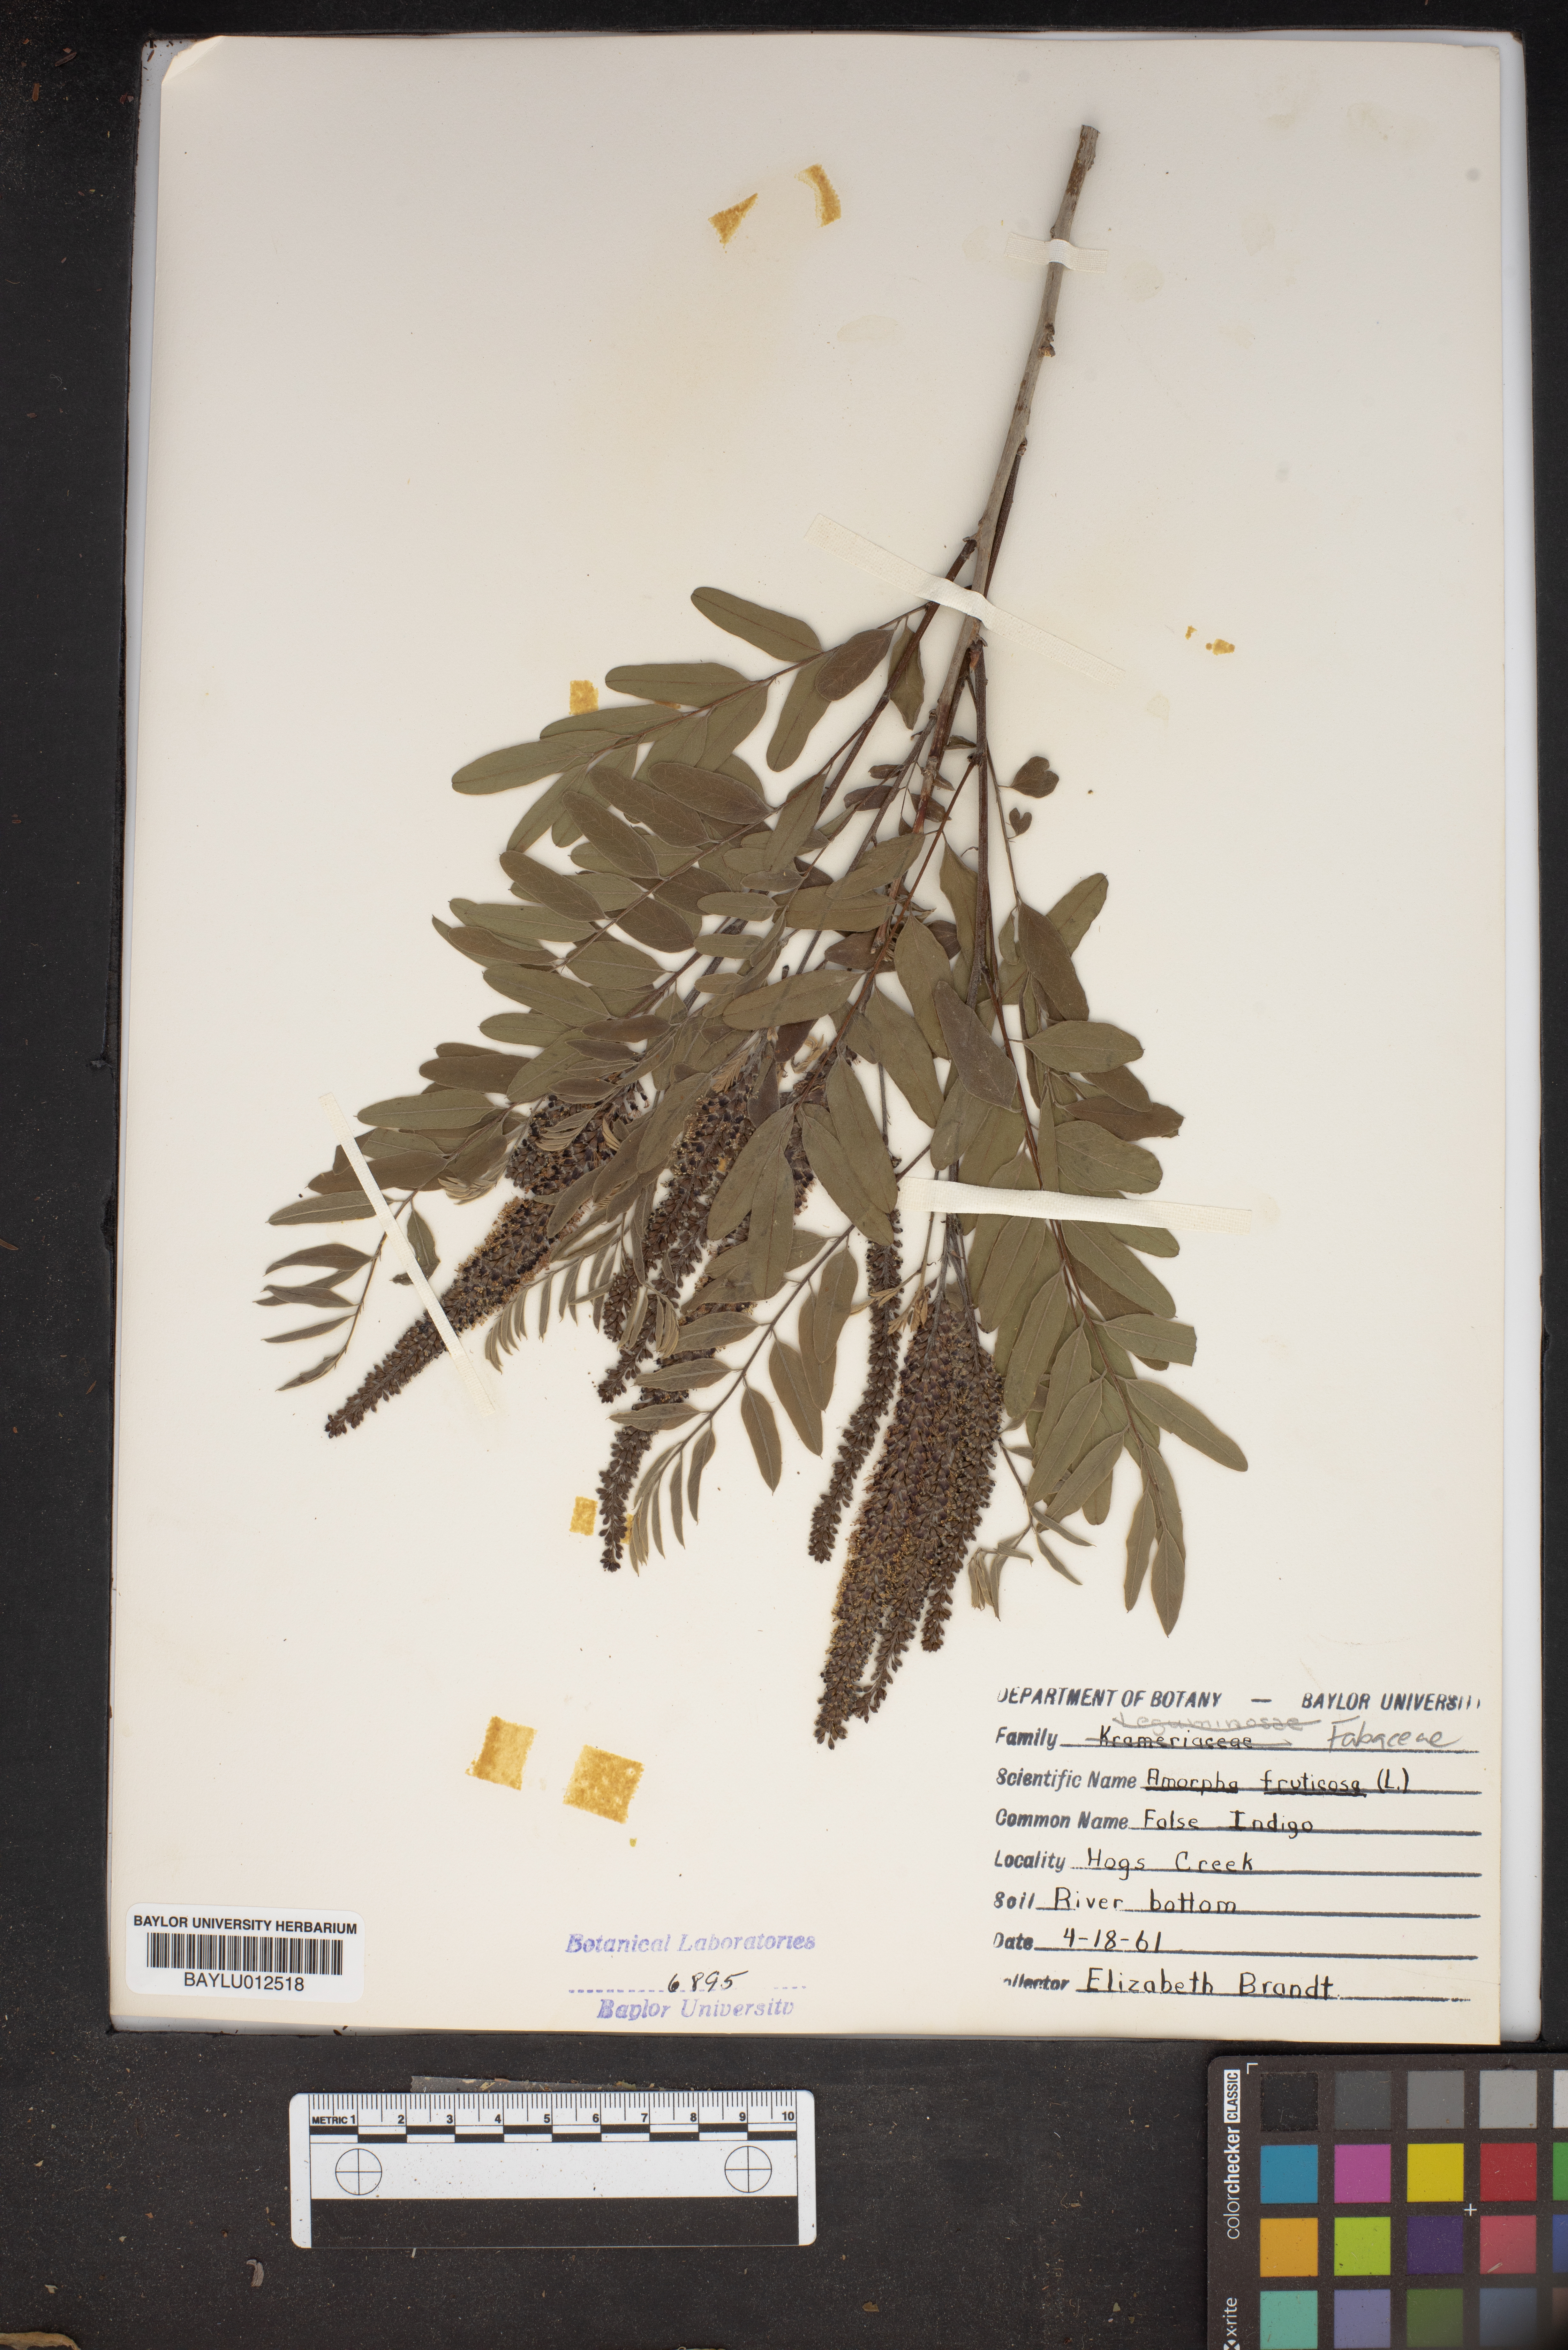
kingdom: Plantae
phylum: Tracheophyta
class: Magnoliopsida
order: Fabales
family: Fabaceae
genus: Amorpha
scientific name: Amorpha fruticosa
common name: False indigo
